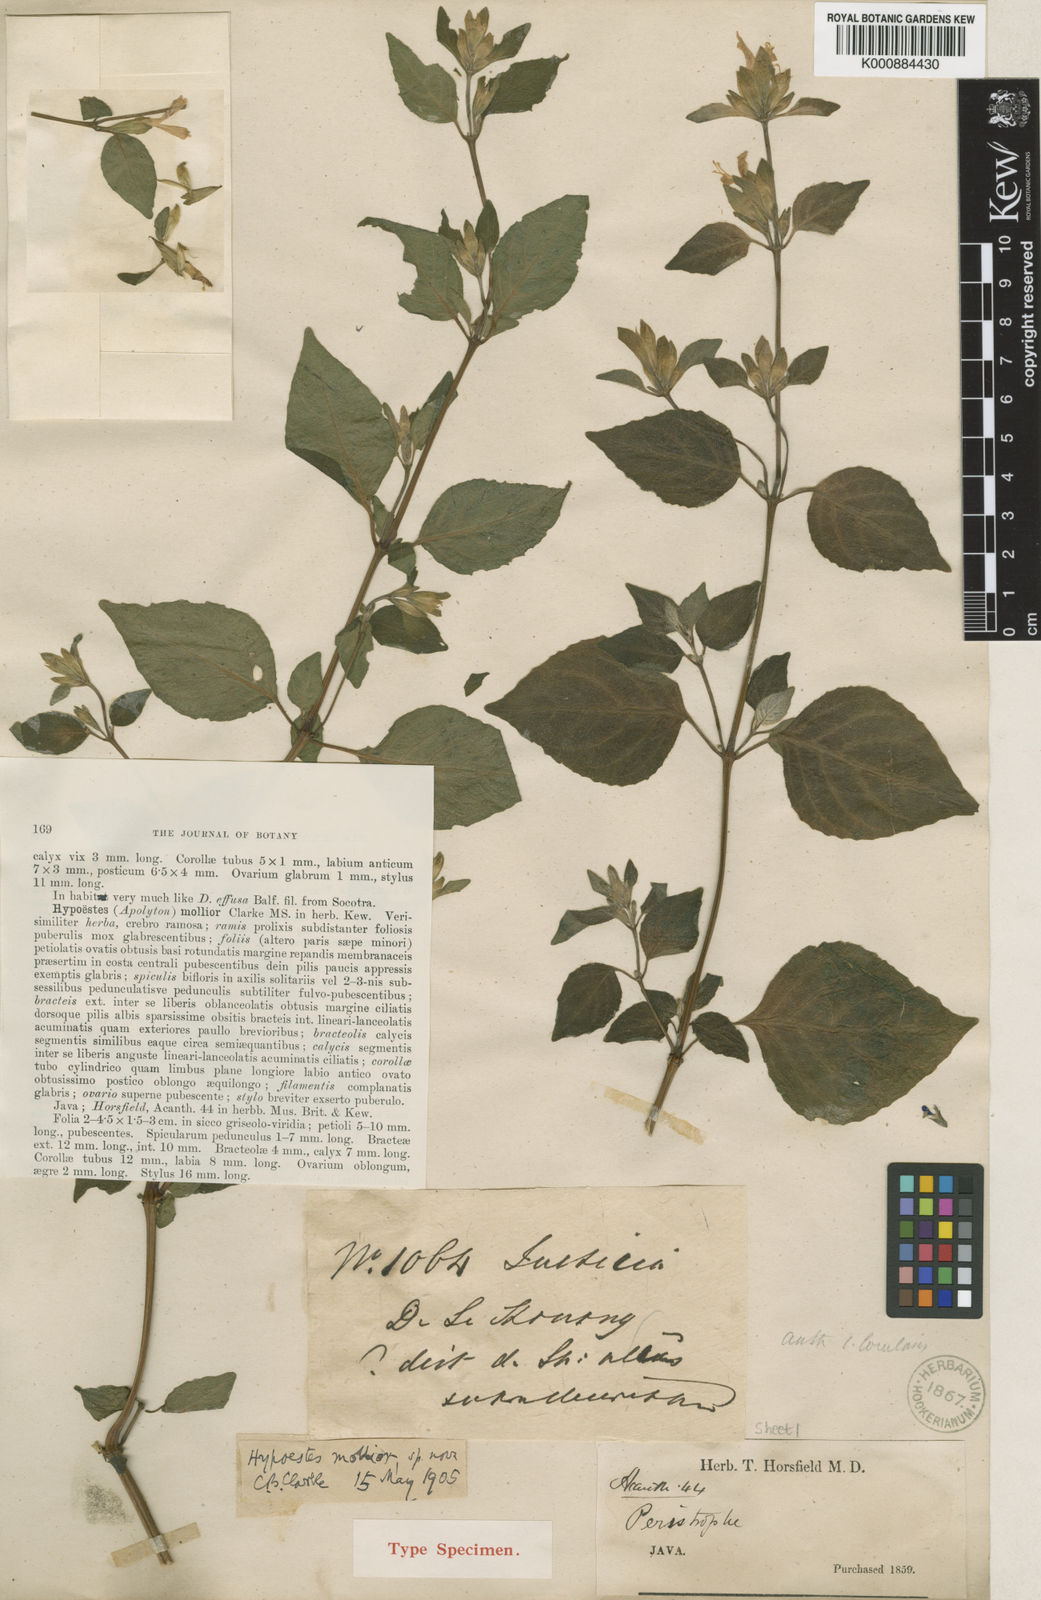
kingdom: Plantae
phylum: Tracheophyta
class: Magnoliopsida
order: Lamiales
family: Acanthaceae
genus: Hypoestes
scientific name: Hypoestes mollior
